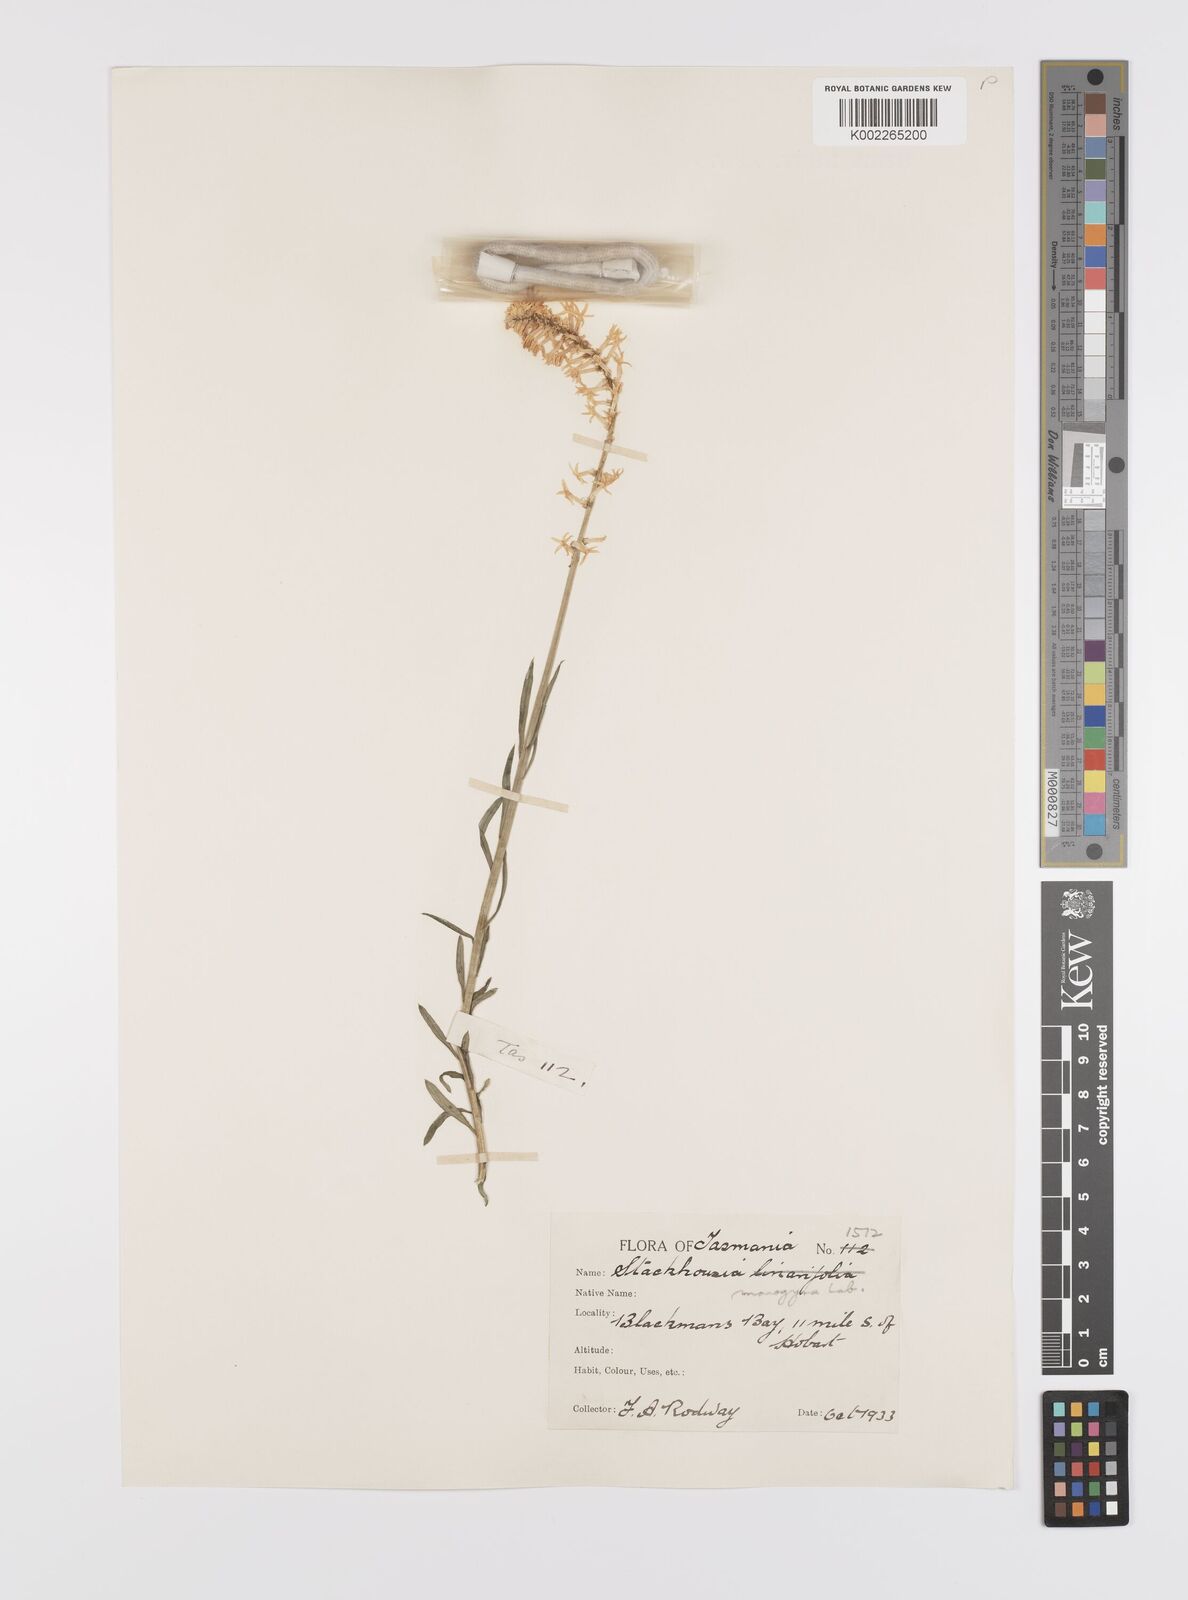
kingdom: Plantae
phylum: Tracheophyta
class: Magnoliopsida
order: Celastrales
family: Celastraceae
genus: Stackhousia
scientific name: Stackhousia monogyna
